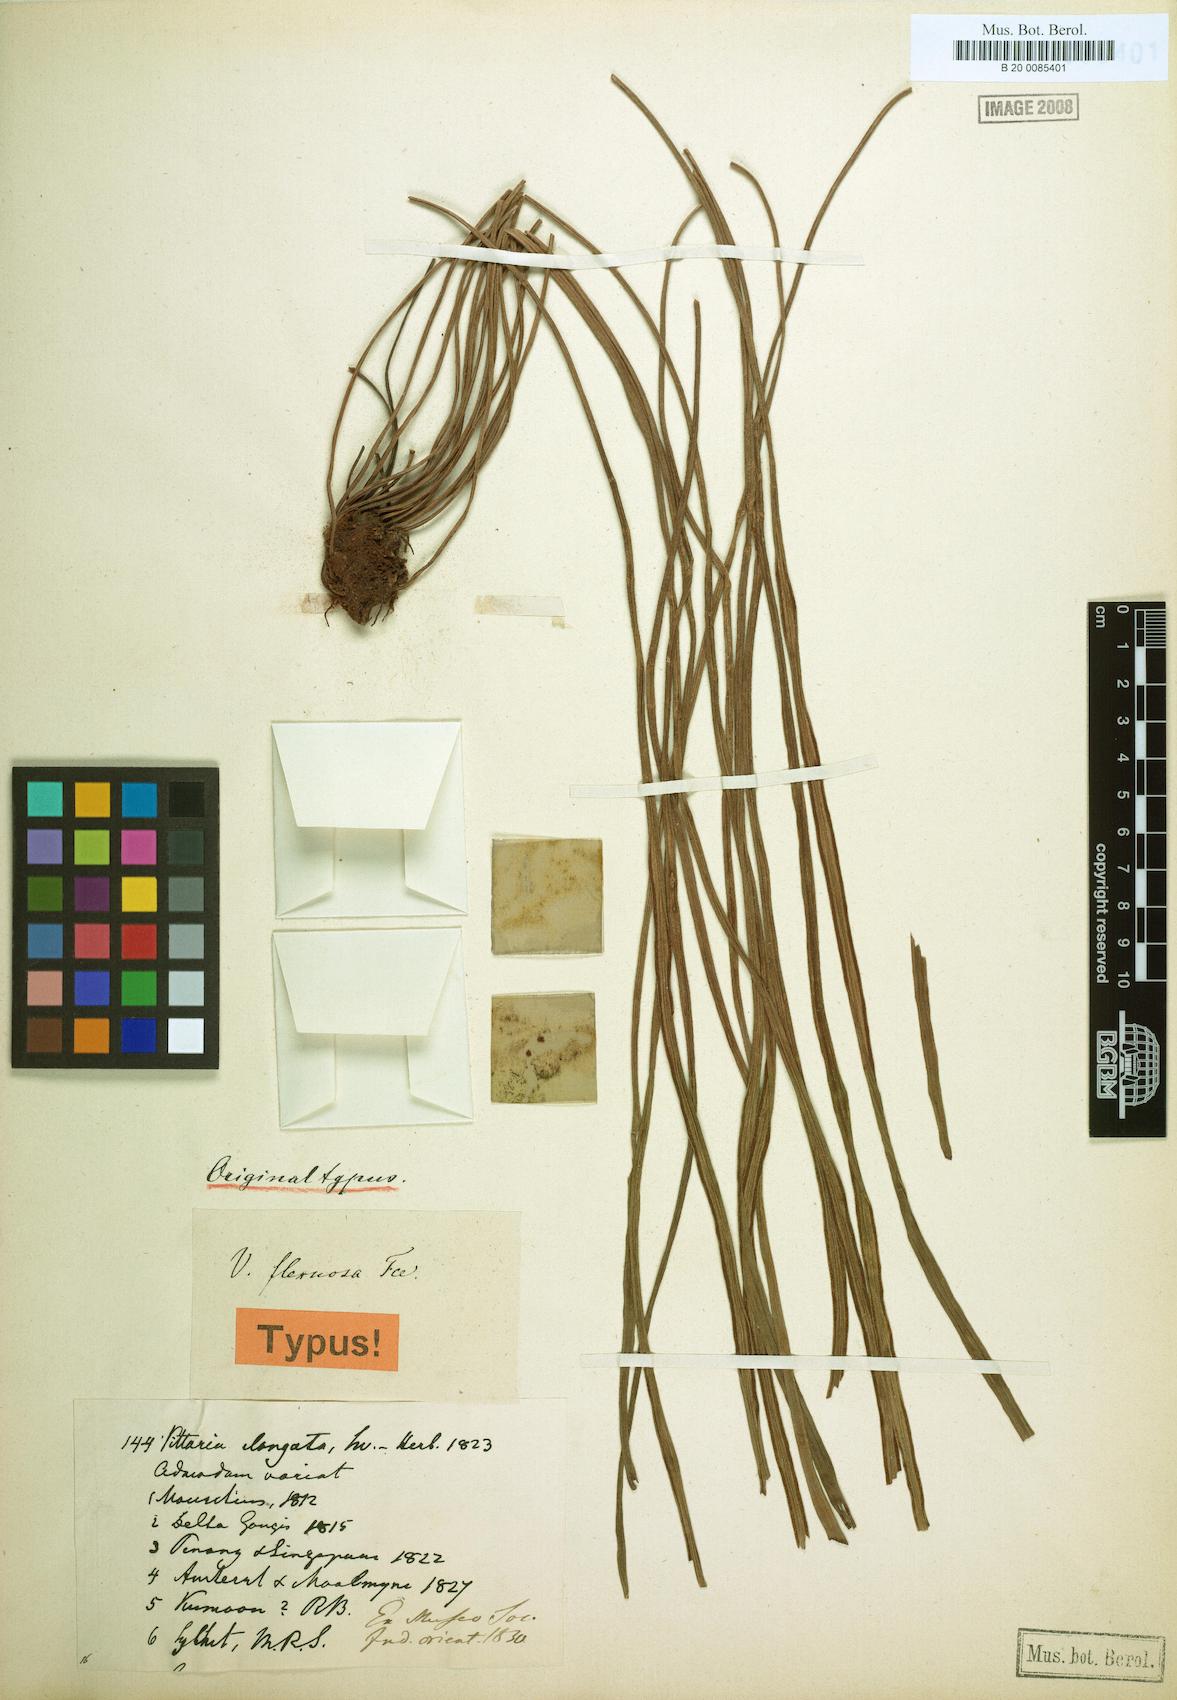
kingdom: Plantae
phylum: Tracheophyta
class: Polypodiopsida
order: Polypodiales
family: Pteridaceae
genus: Haplopteris
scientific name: Haplopteris flexuosa
